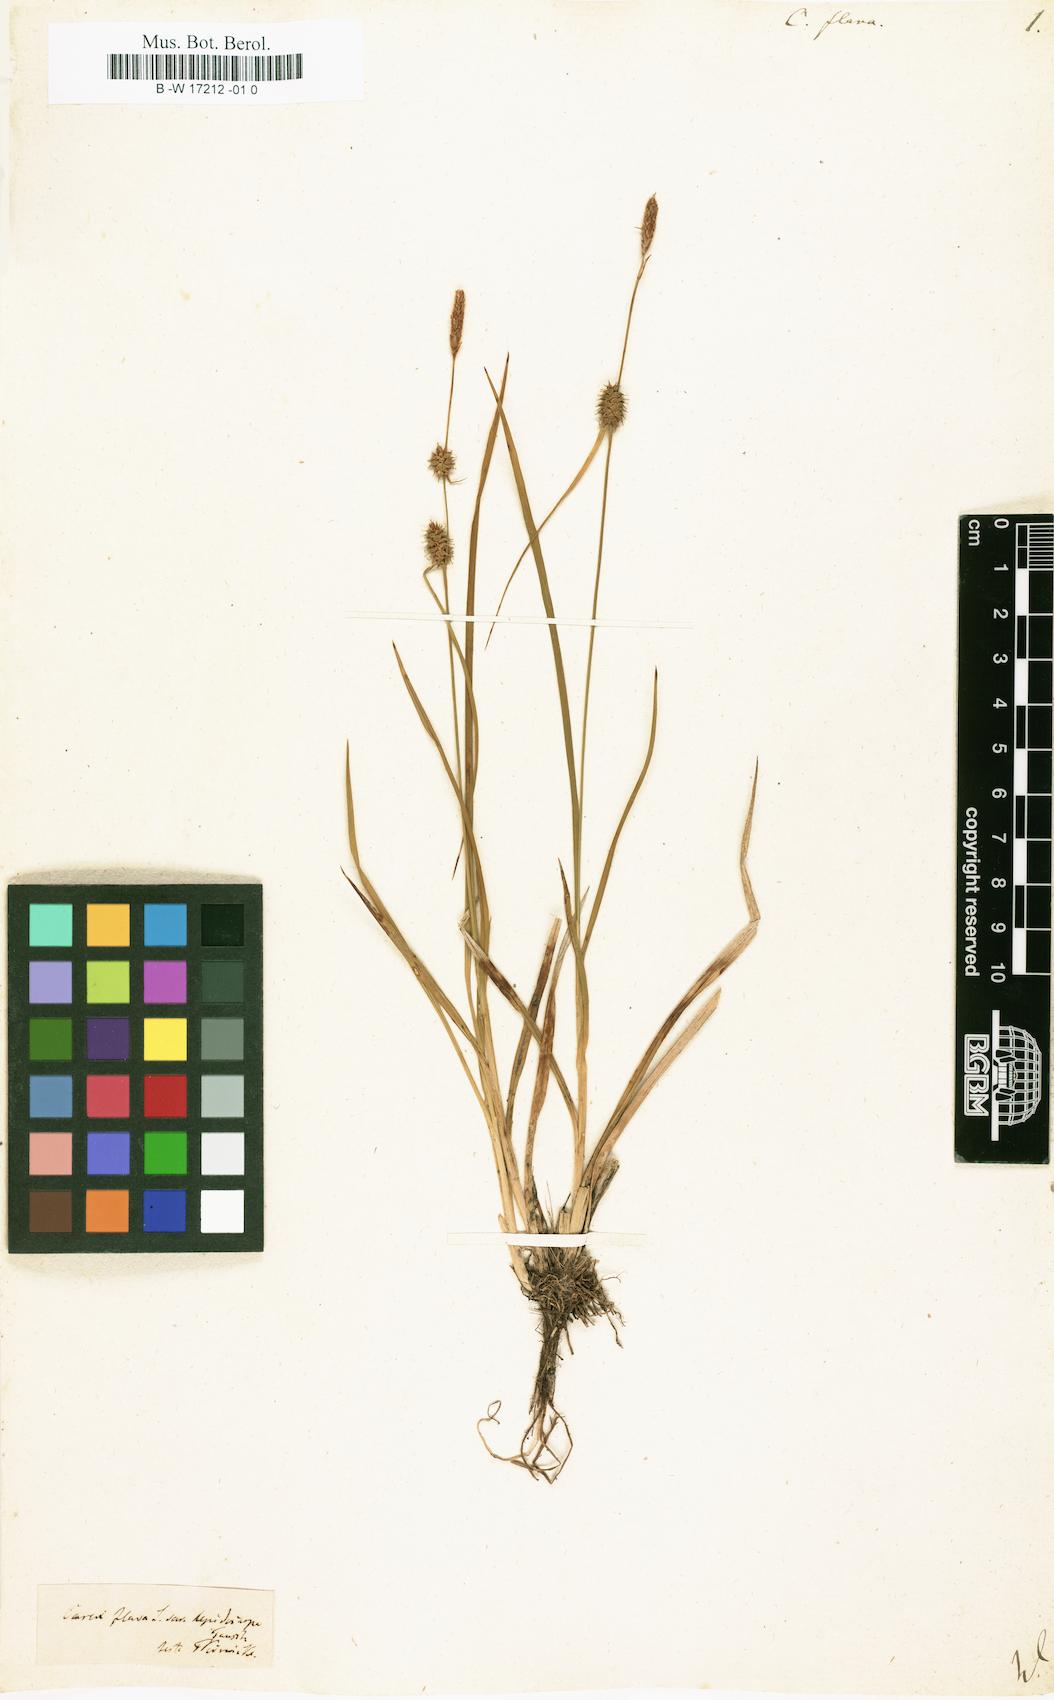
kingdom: Plantae
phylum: Tracheophyta
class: Liliopsida
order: Poales
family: Cyperaceae
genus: Carex
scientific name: Carex flava
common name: Large yellow-sedge
